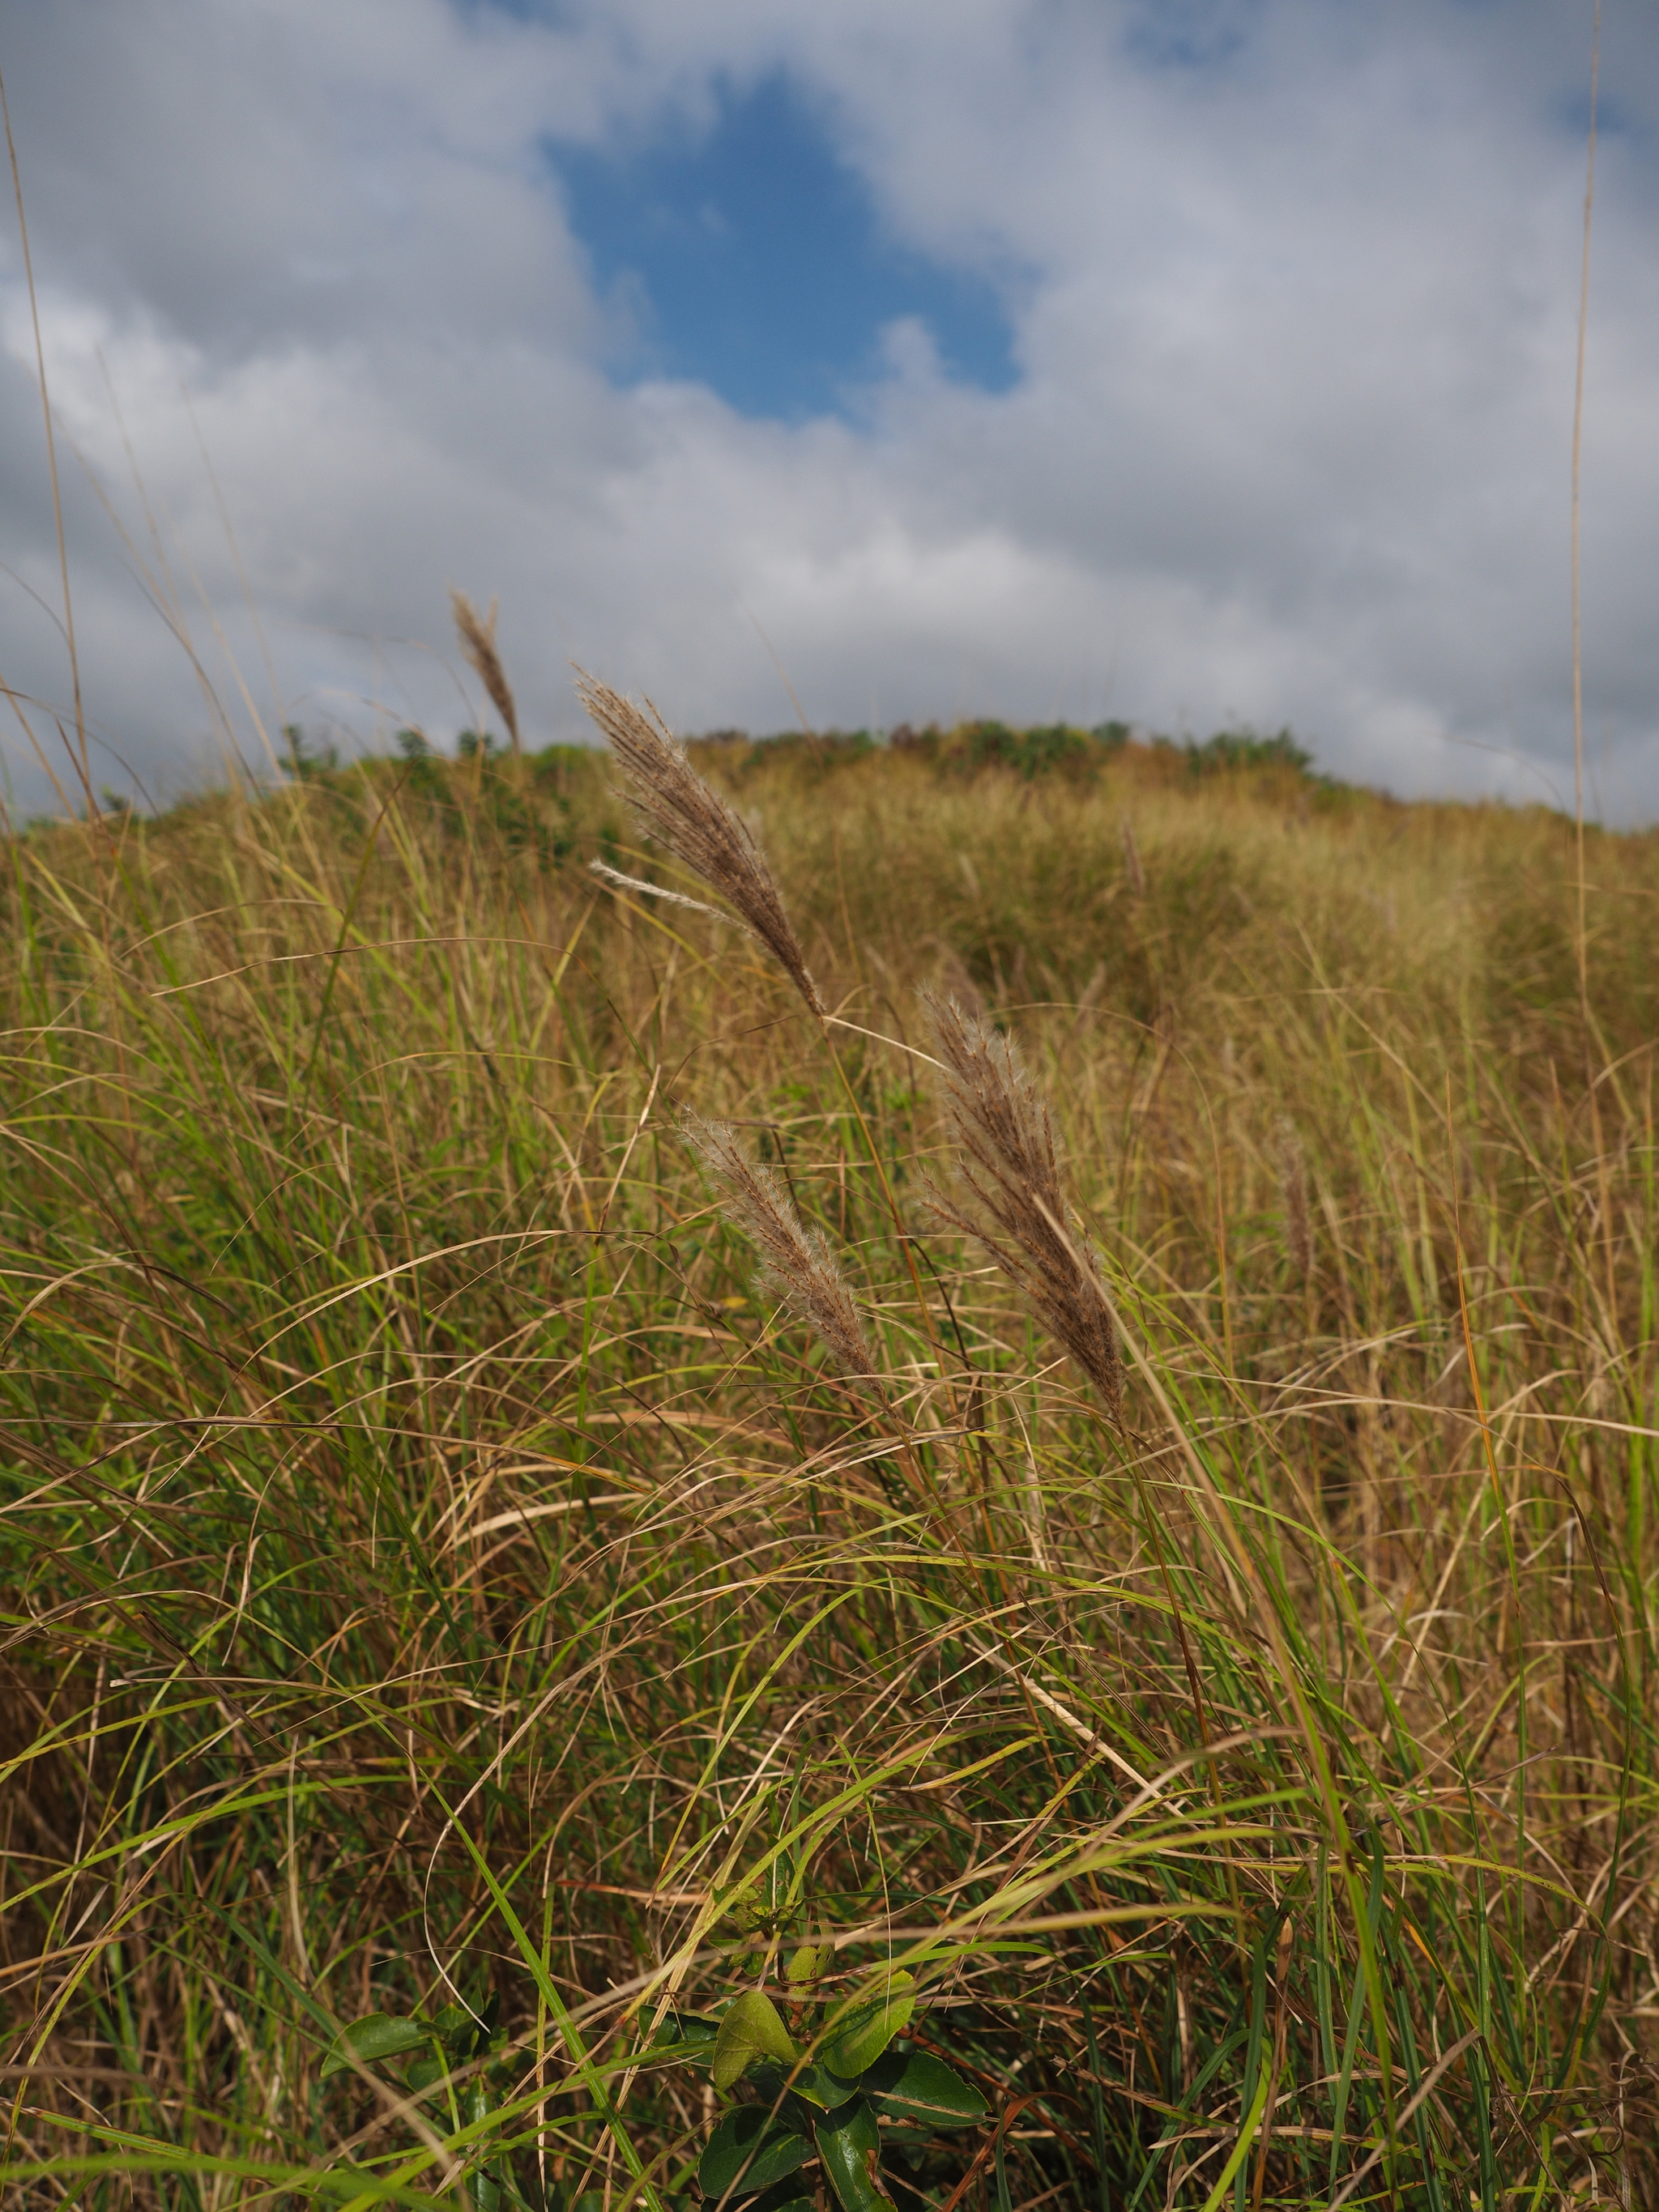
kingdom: Plantae
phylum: Tracheophyta
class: Liliopsida
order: Poales
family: Poaceae
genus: Saccharum
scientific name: Saccharum formosanum
